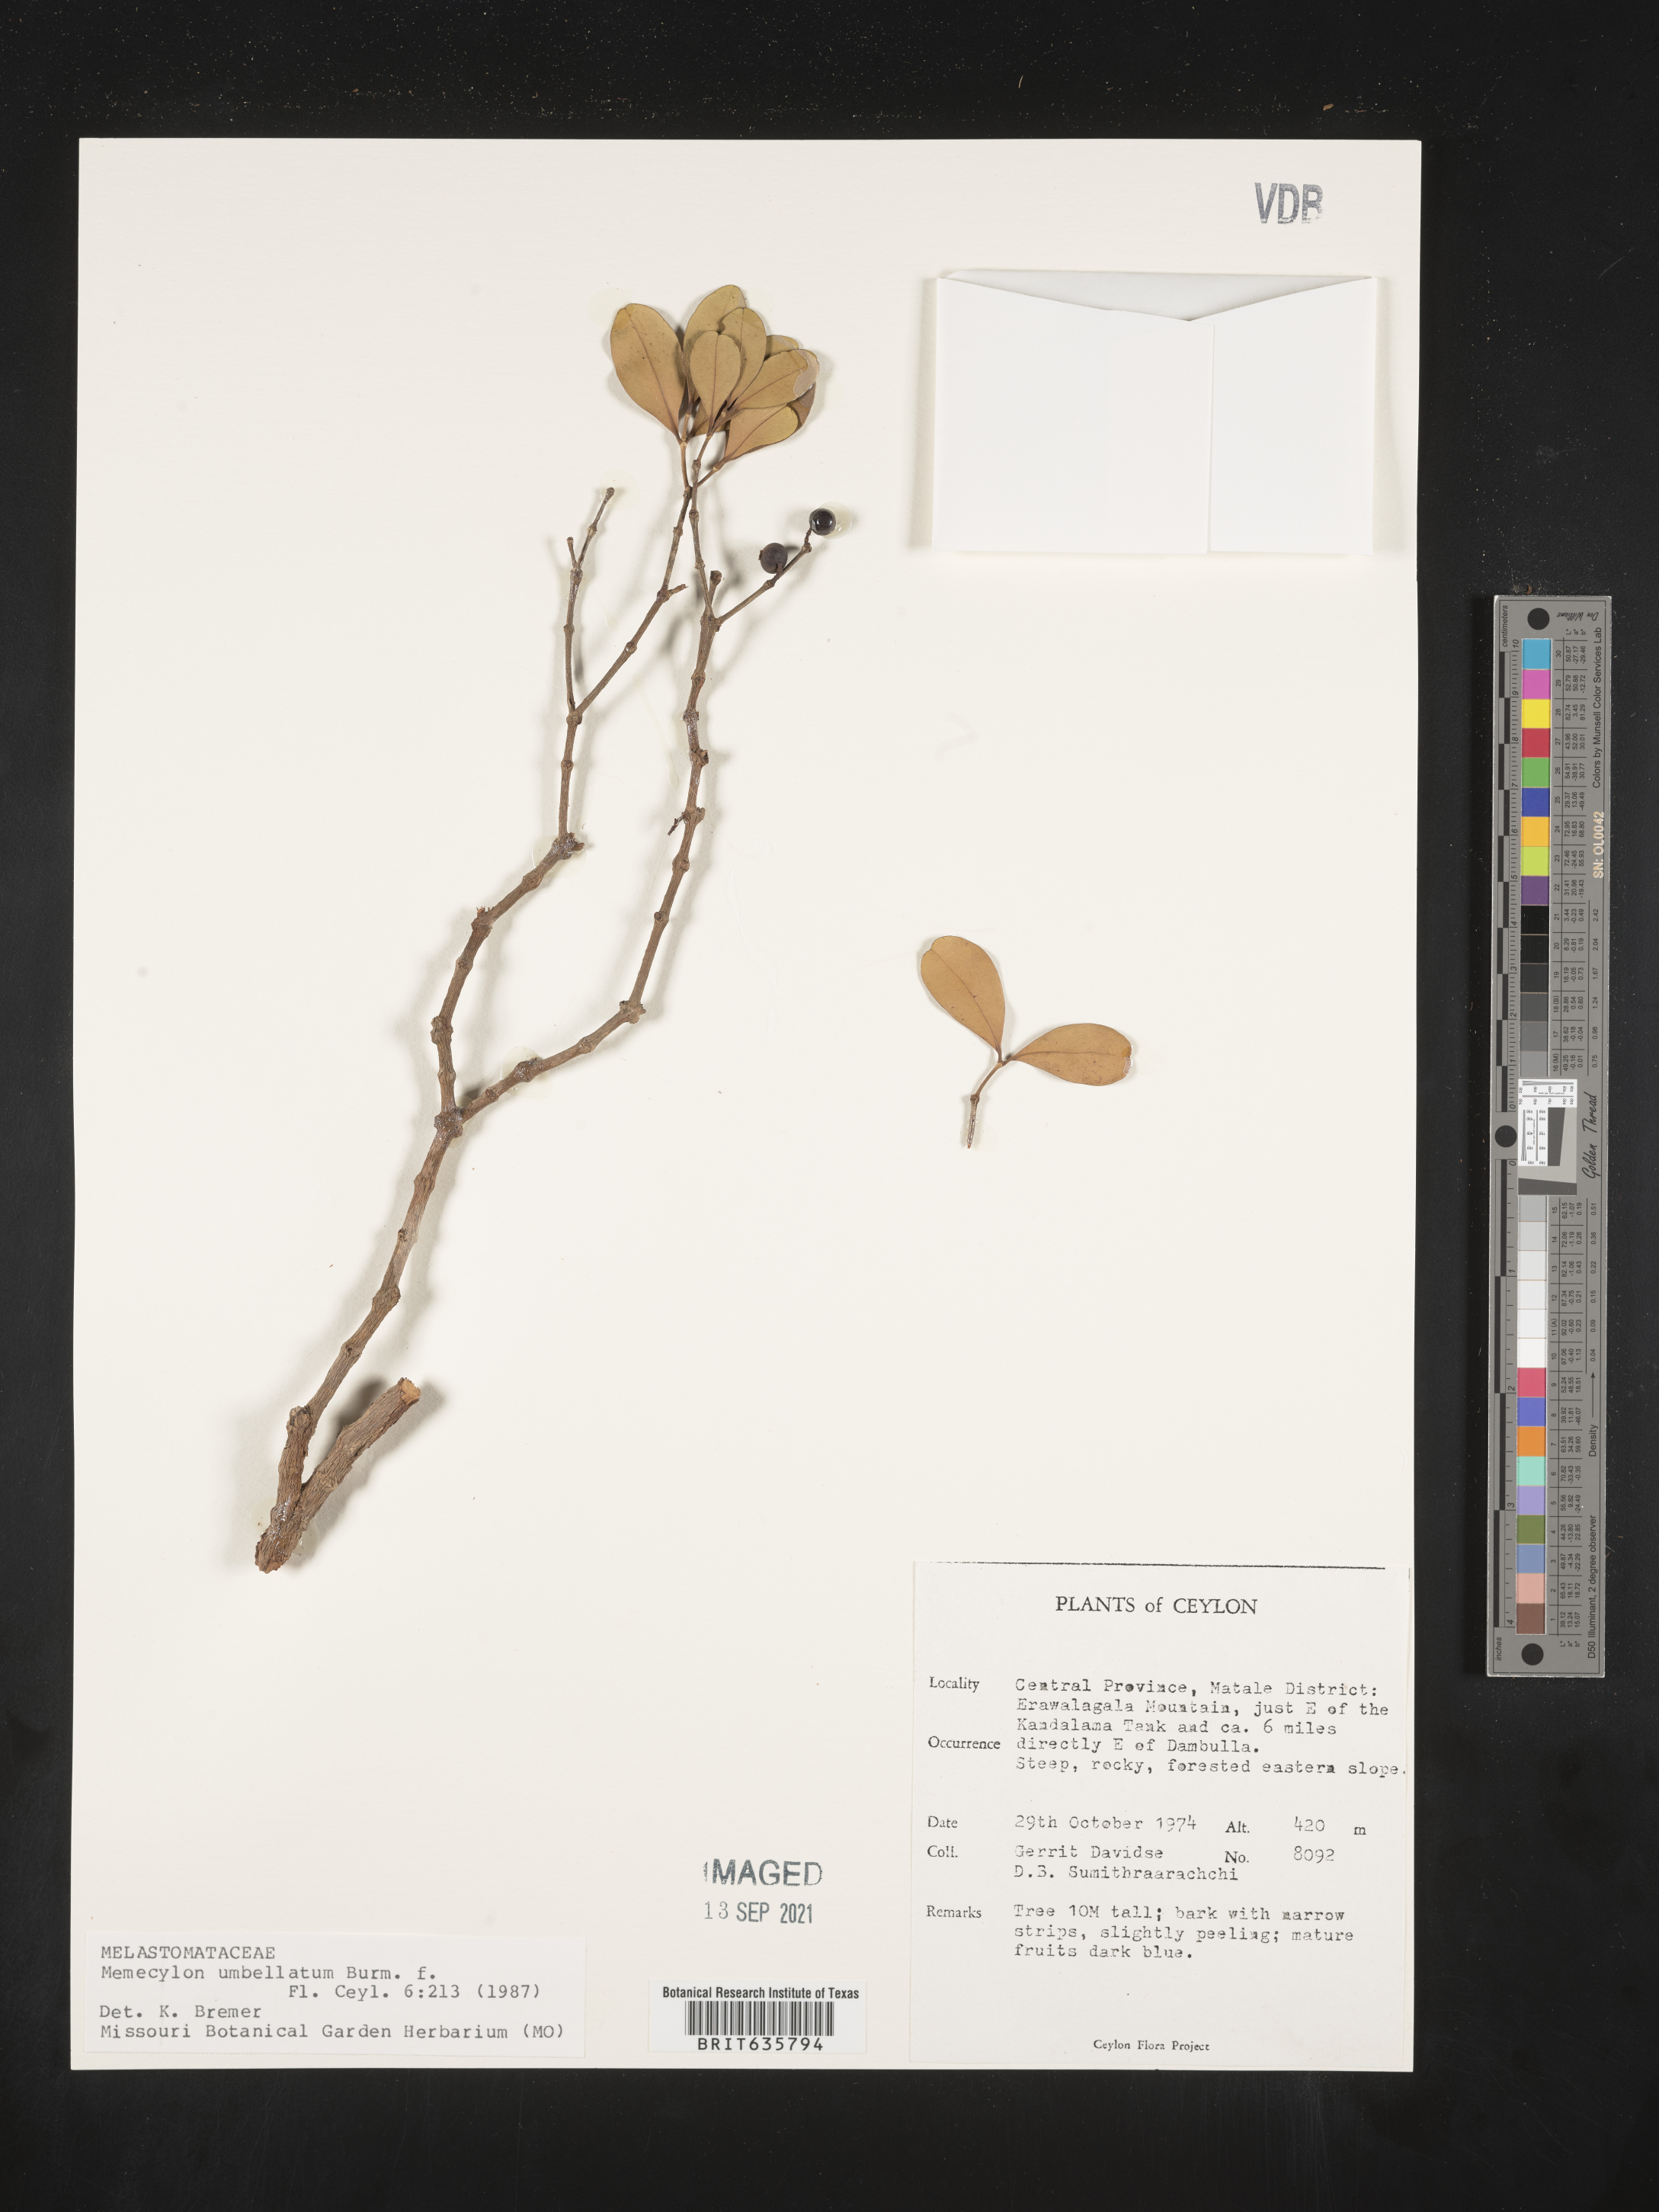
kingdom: Plantae
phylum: Tracheophyta
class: Magnoliopsida
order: Myrtales
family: Melastomataceae
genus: Memecylon
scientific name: Memecylon
